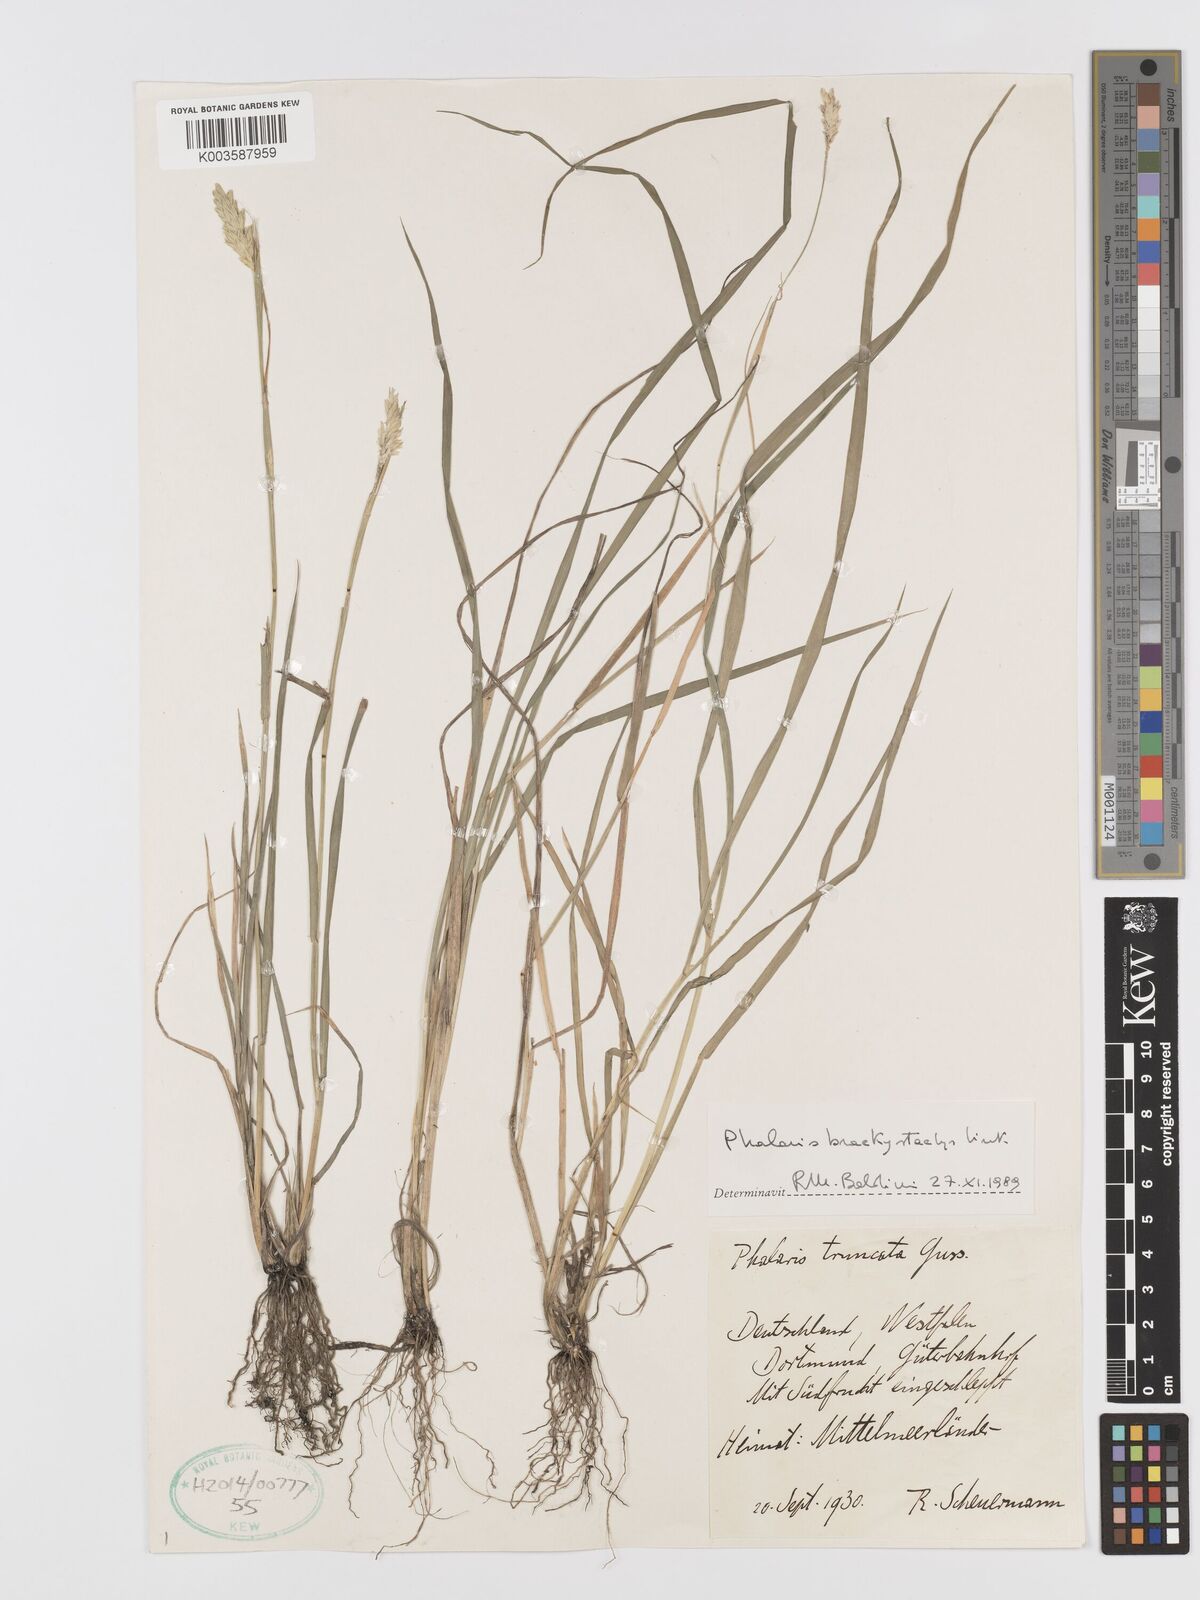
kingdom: Plantae
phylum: Tracheophyta
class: Liliopsida
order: Poales
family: Poaceae
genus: Phalaris
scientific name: Phalaris brachystachys
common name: Confused canary-grass
